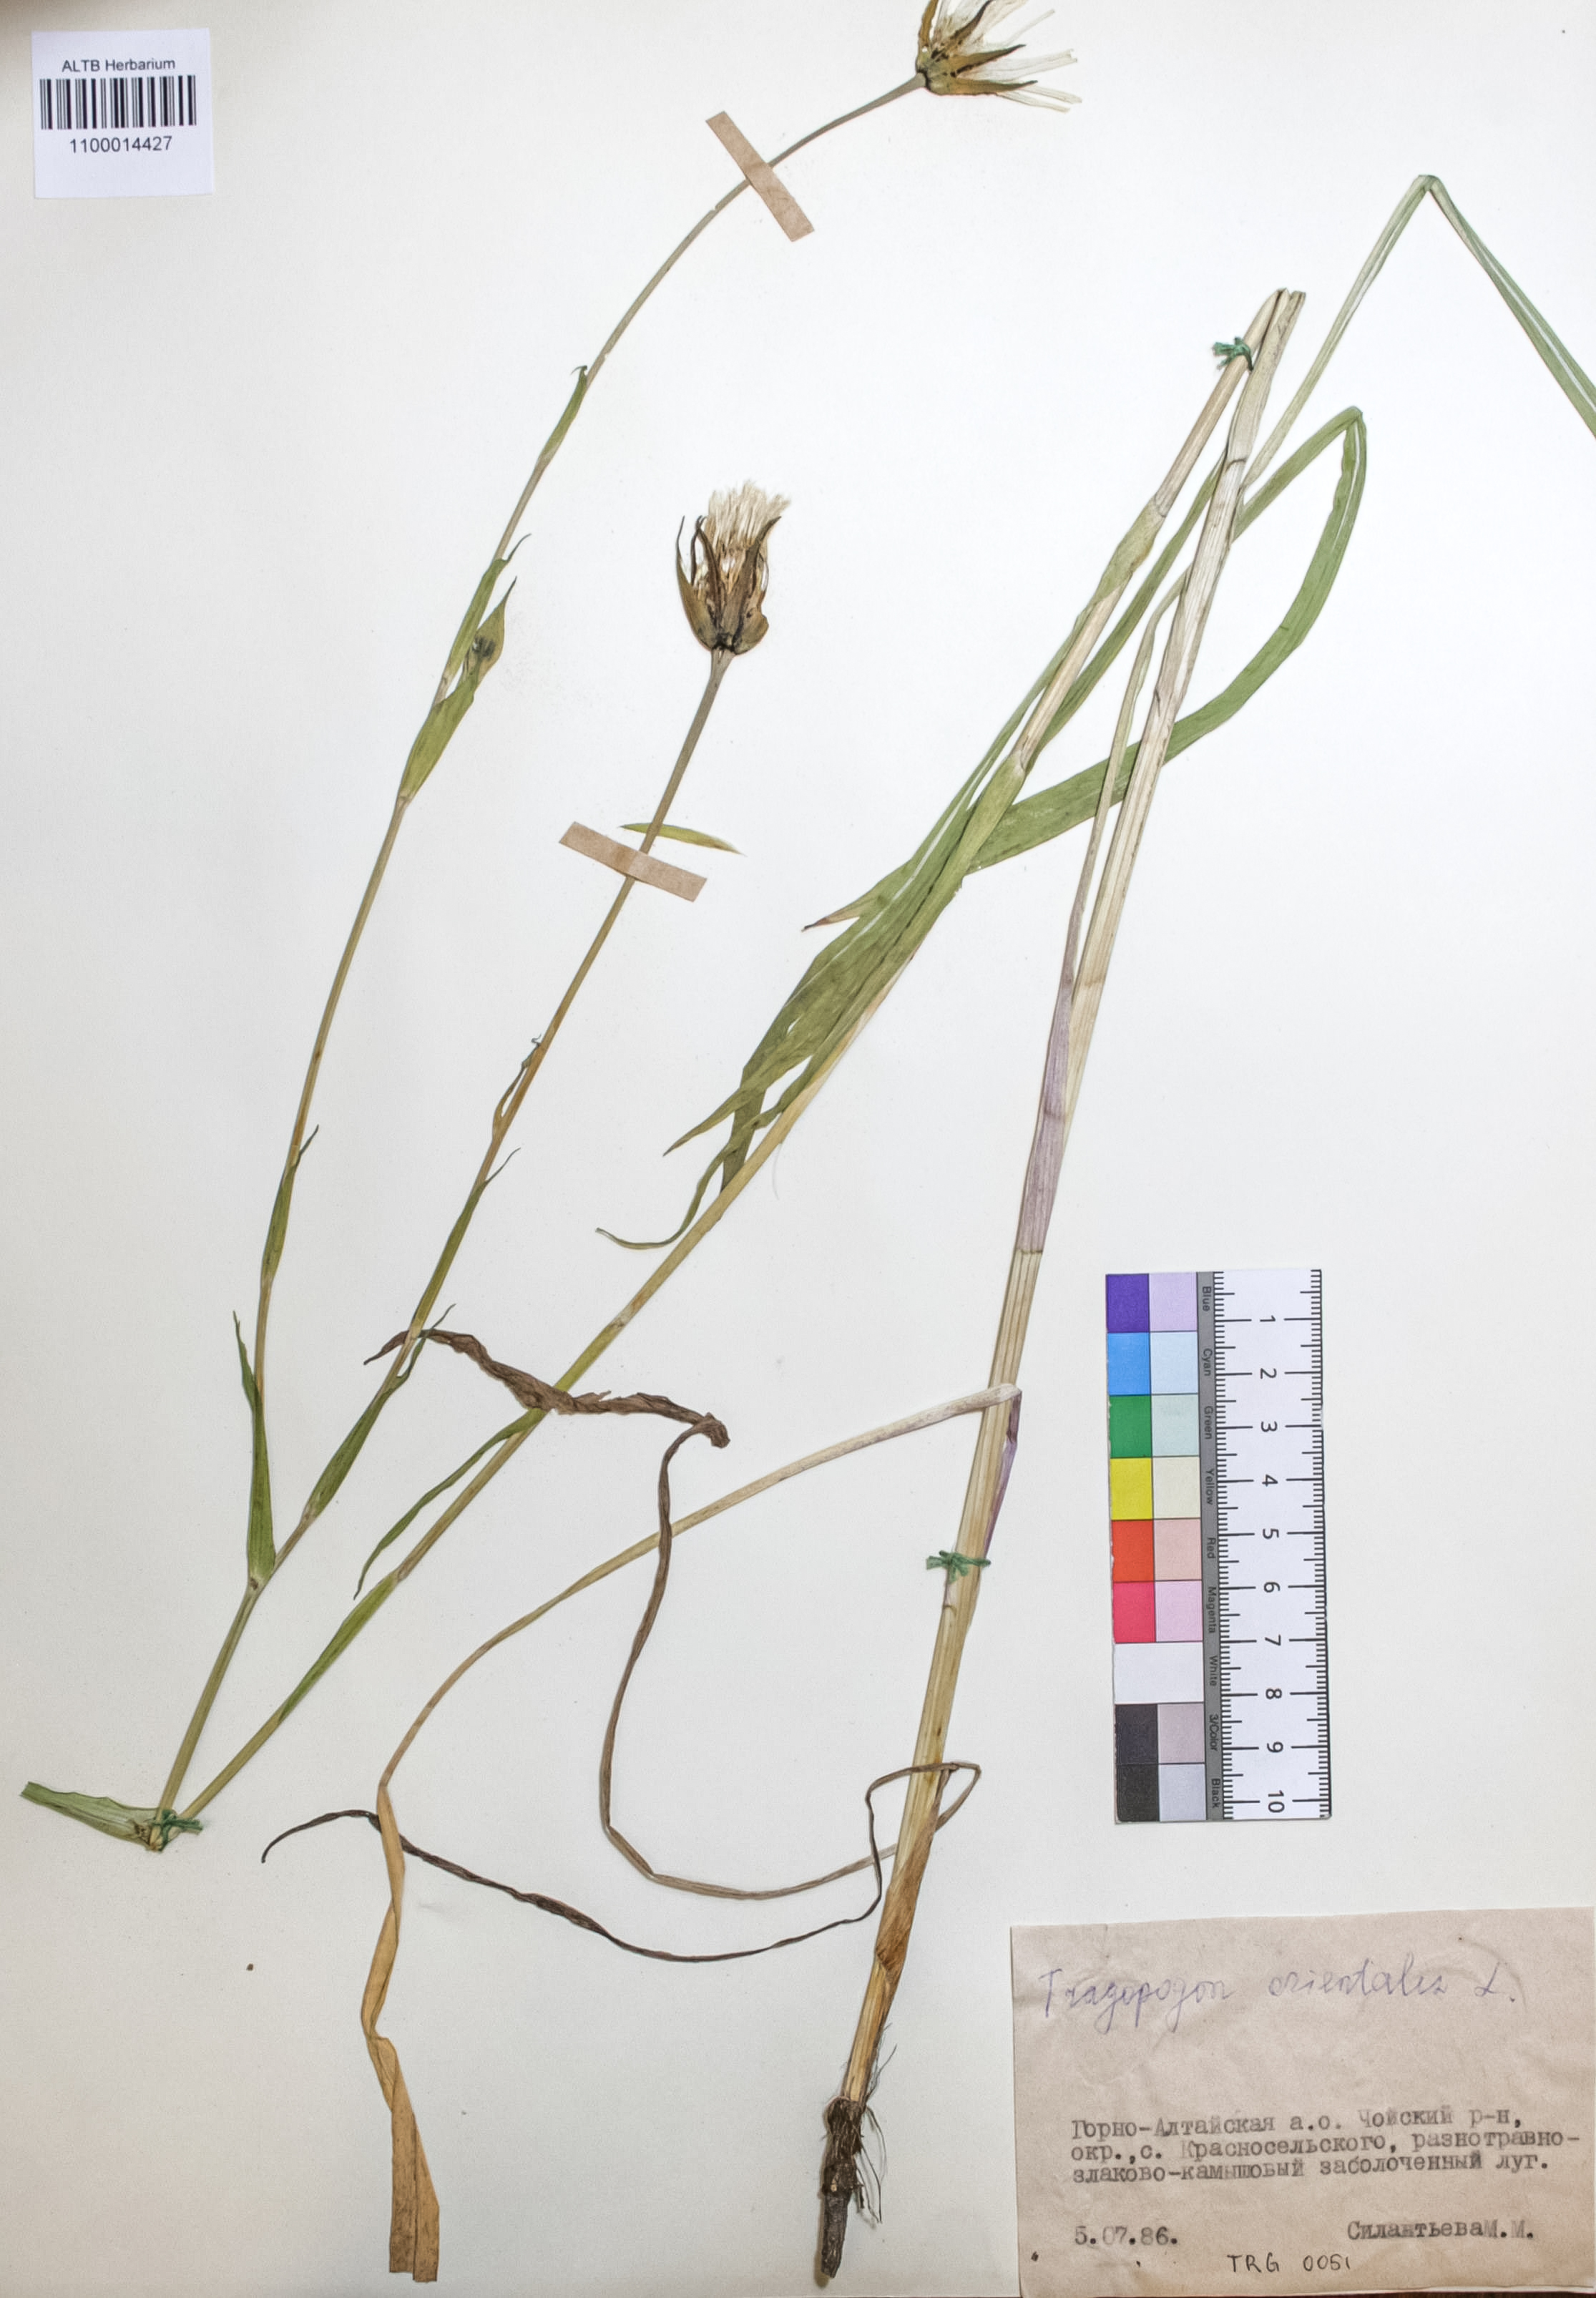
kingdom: Plantae
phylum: Tracheophyta
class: Magnoliopsida
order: Asterales
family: Asteraceae
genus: Tragopogon
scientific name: Tragopogon orientalis
